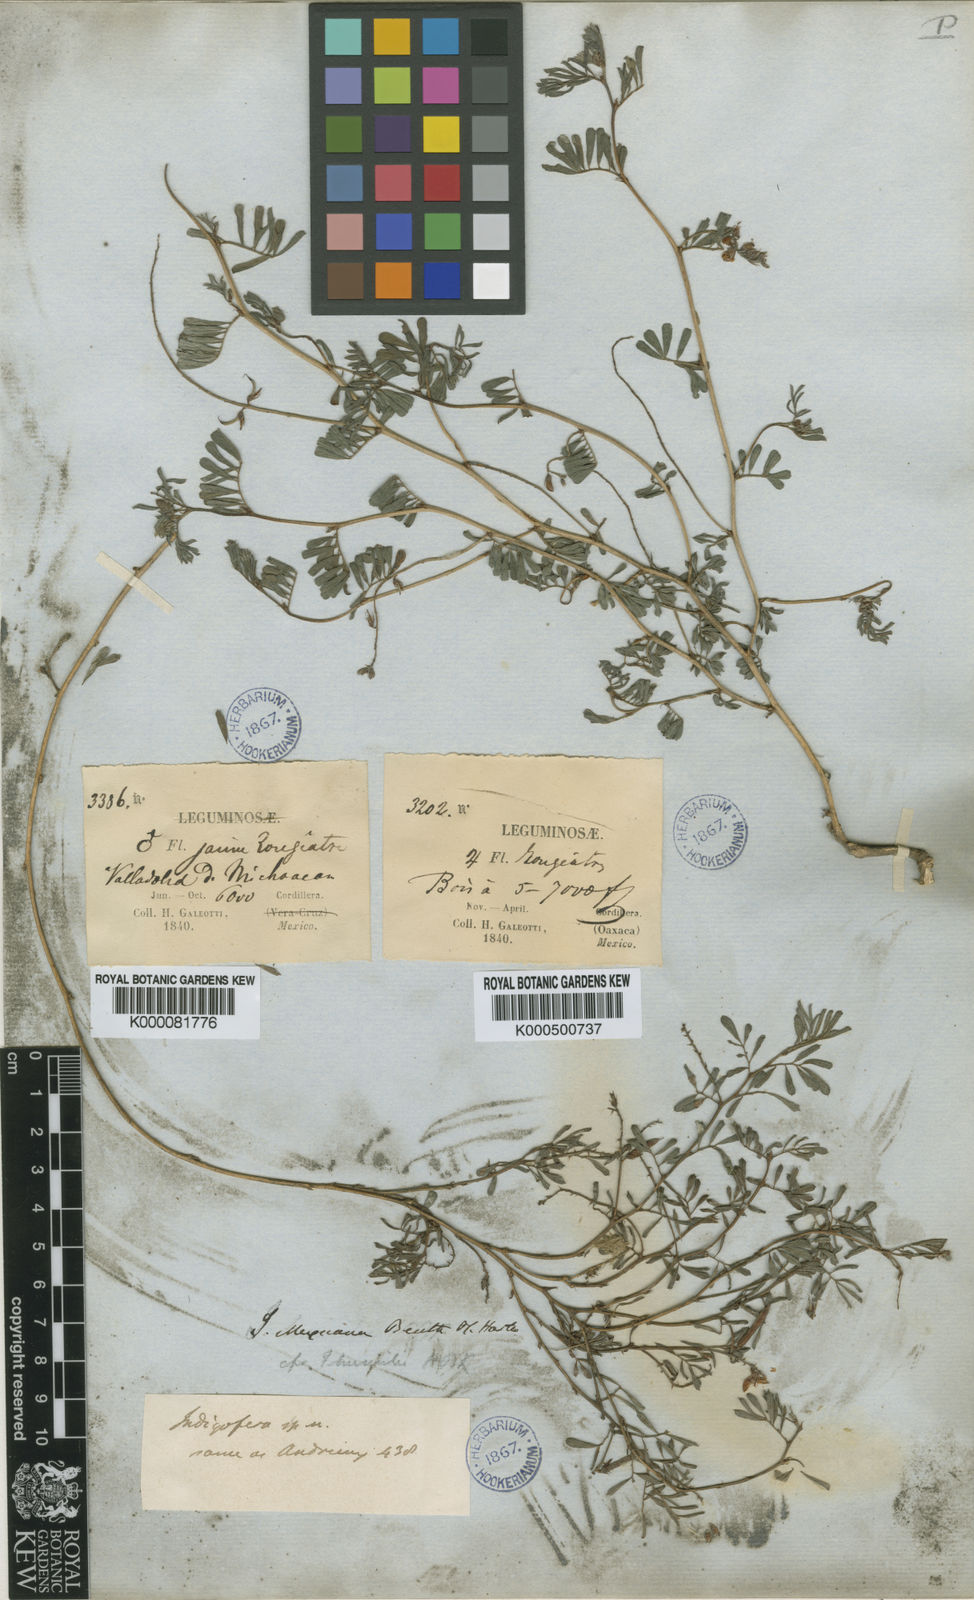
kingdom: Plantae
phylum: Tracheophyta
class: Magnoliopsida
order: Fabales
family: Fabaceae
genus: Indigofera
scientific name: Indigofera miniata
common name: Coast indigo
